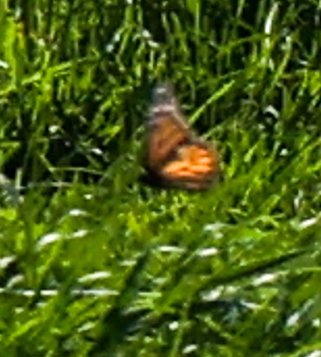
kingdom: Animalia
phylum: Arthropoda
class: Insecta
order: Lepidoptera
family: Nymphalidae
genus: Danaus
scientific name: Danaus plexippus
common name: Monarch
